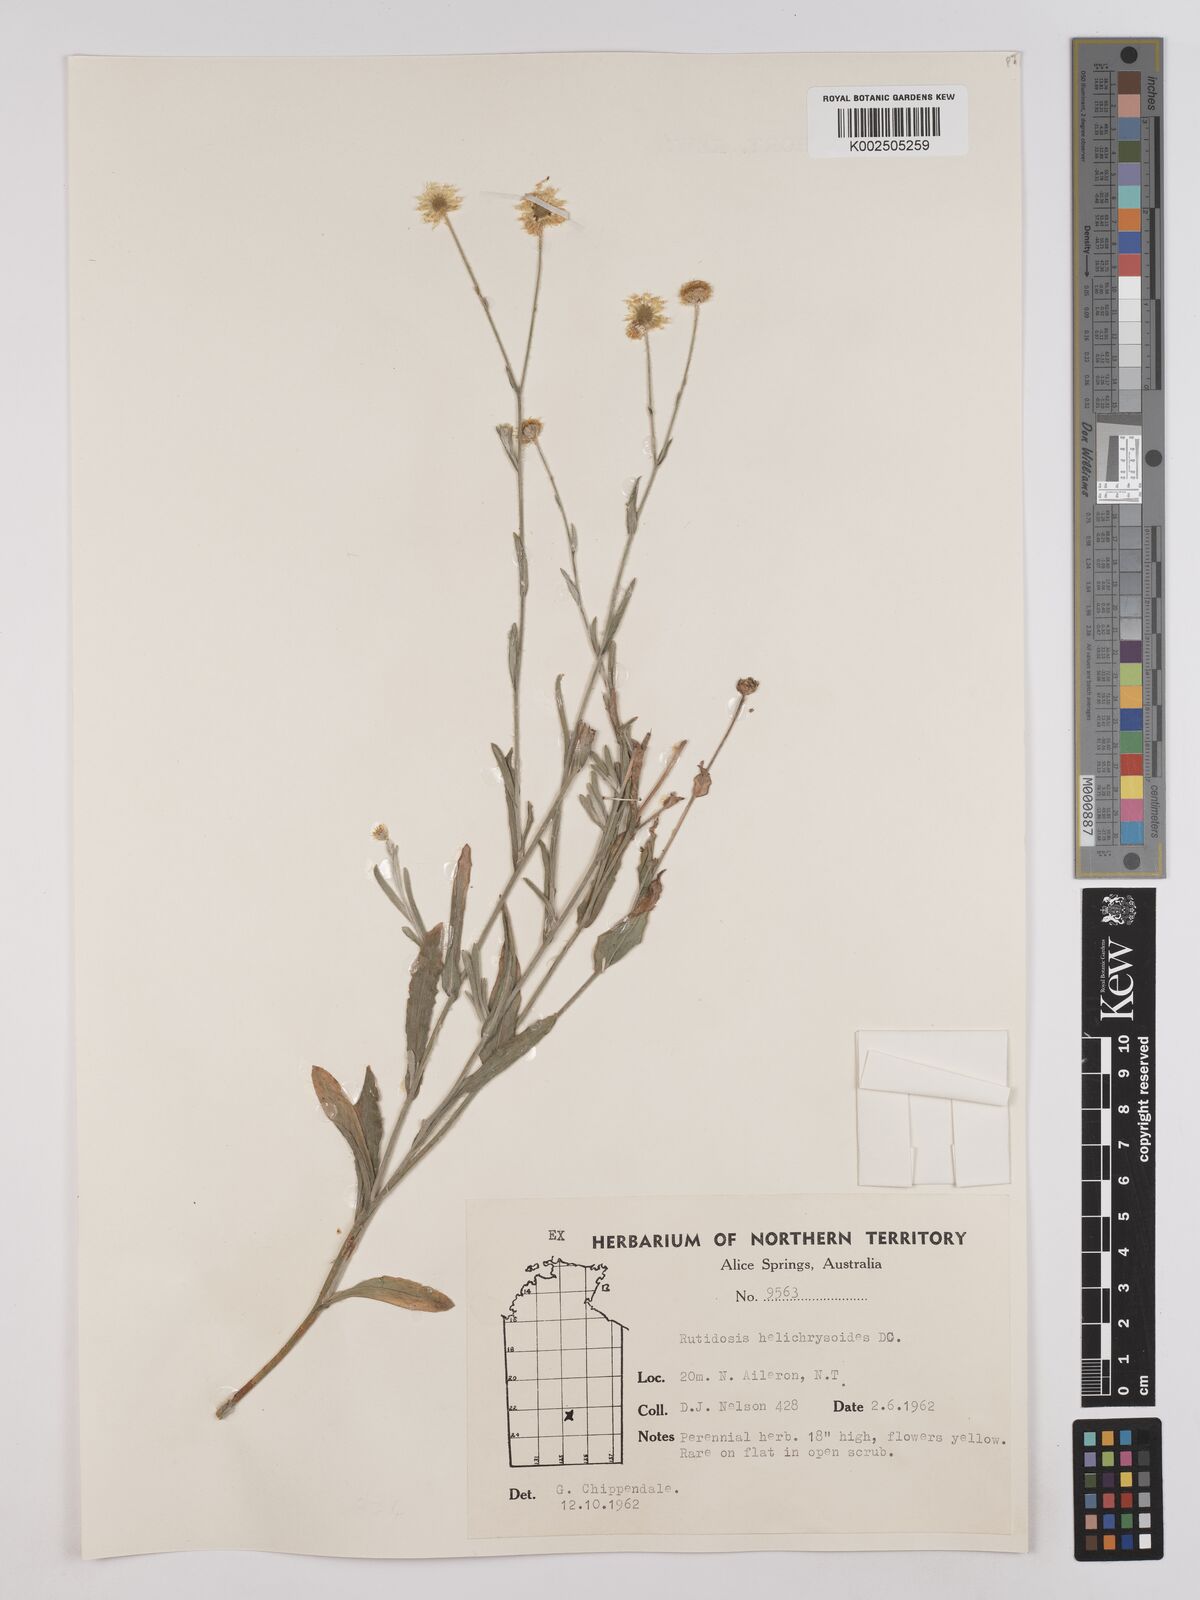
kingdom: Plantae
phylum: Tracheophyta
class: Magnoliopsida
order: Asterales
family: Asteraceae
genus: Rutidosis
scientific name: Rutidosis helichrysoides
